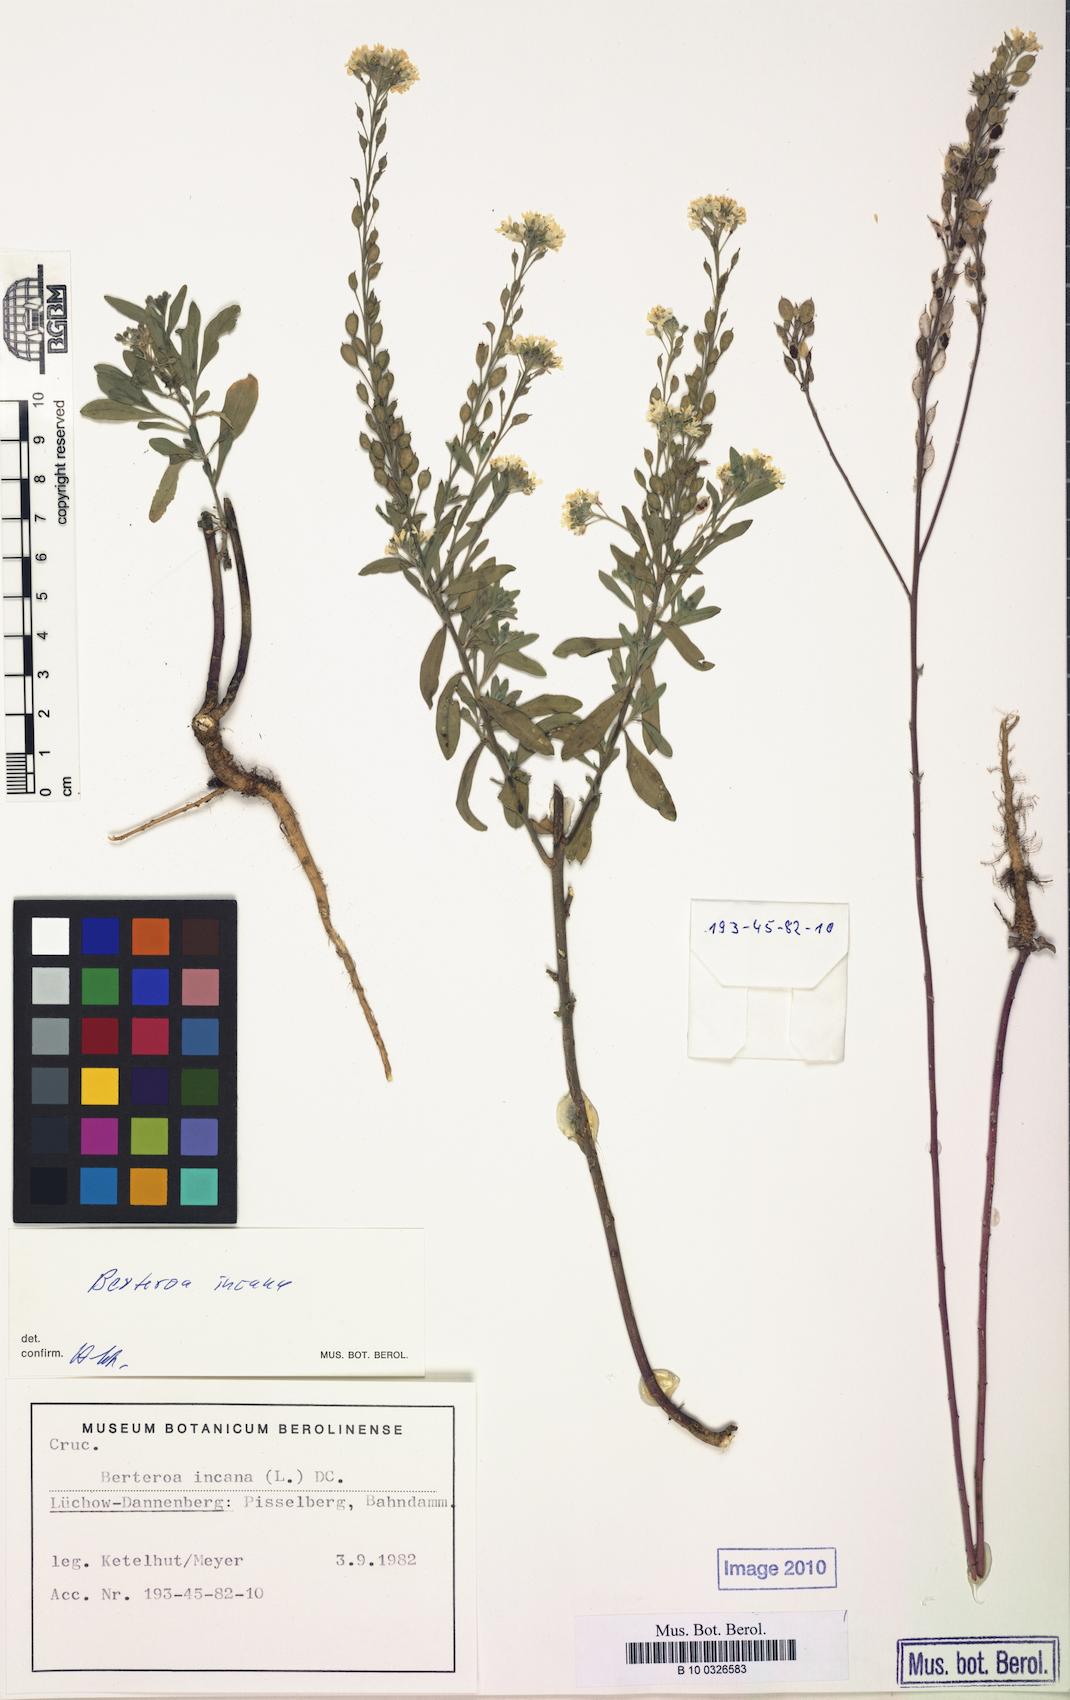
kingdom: Plantae
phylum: Tracheophyta
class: Magnoliopsida
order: Brassicales
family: Brassicaceae
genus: Berteroa
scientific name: Berteroa incana
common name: Hoary alison
